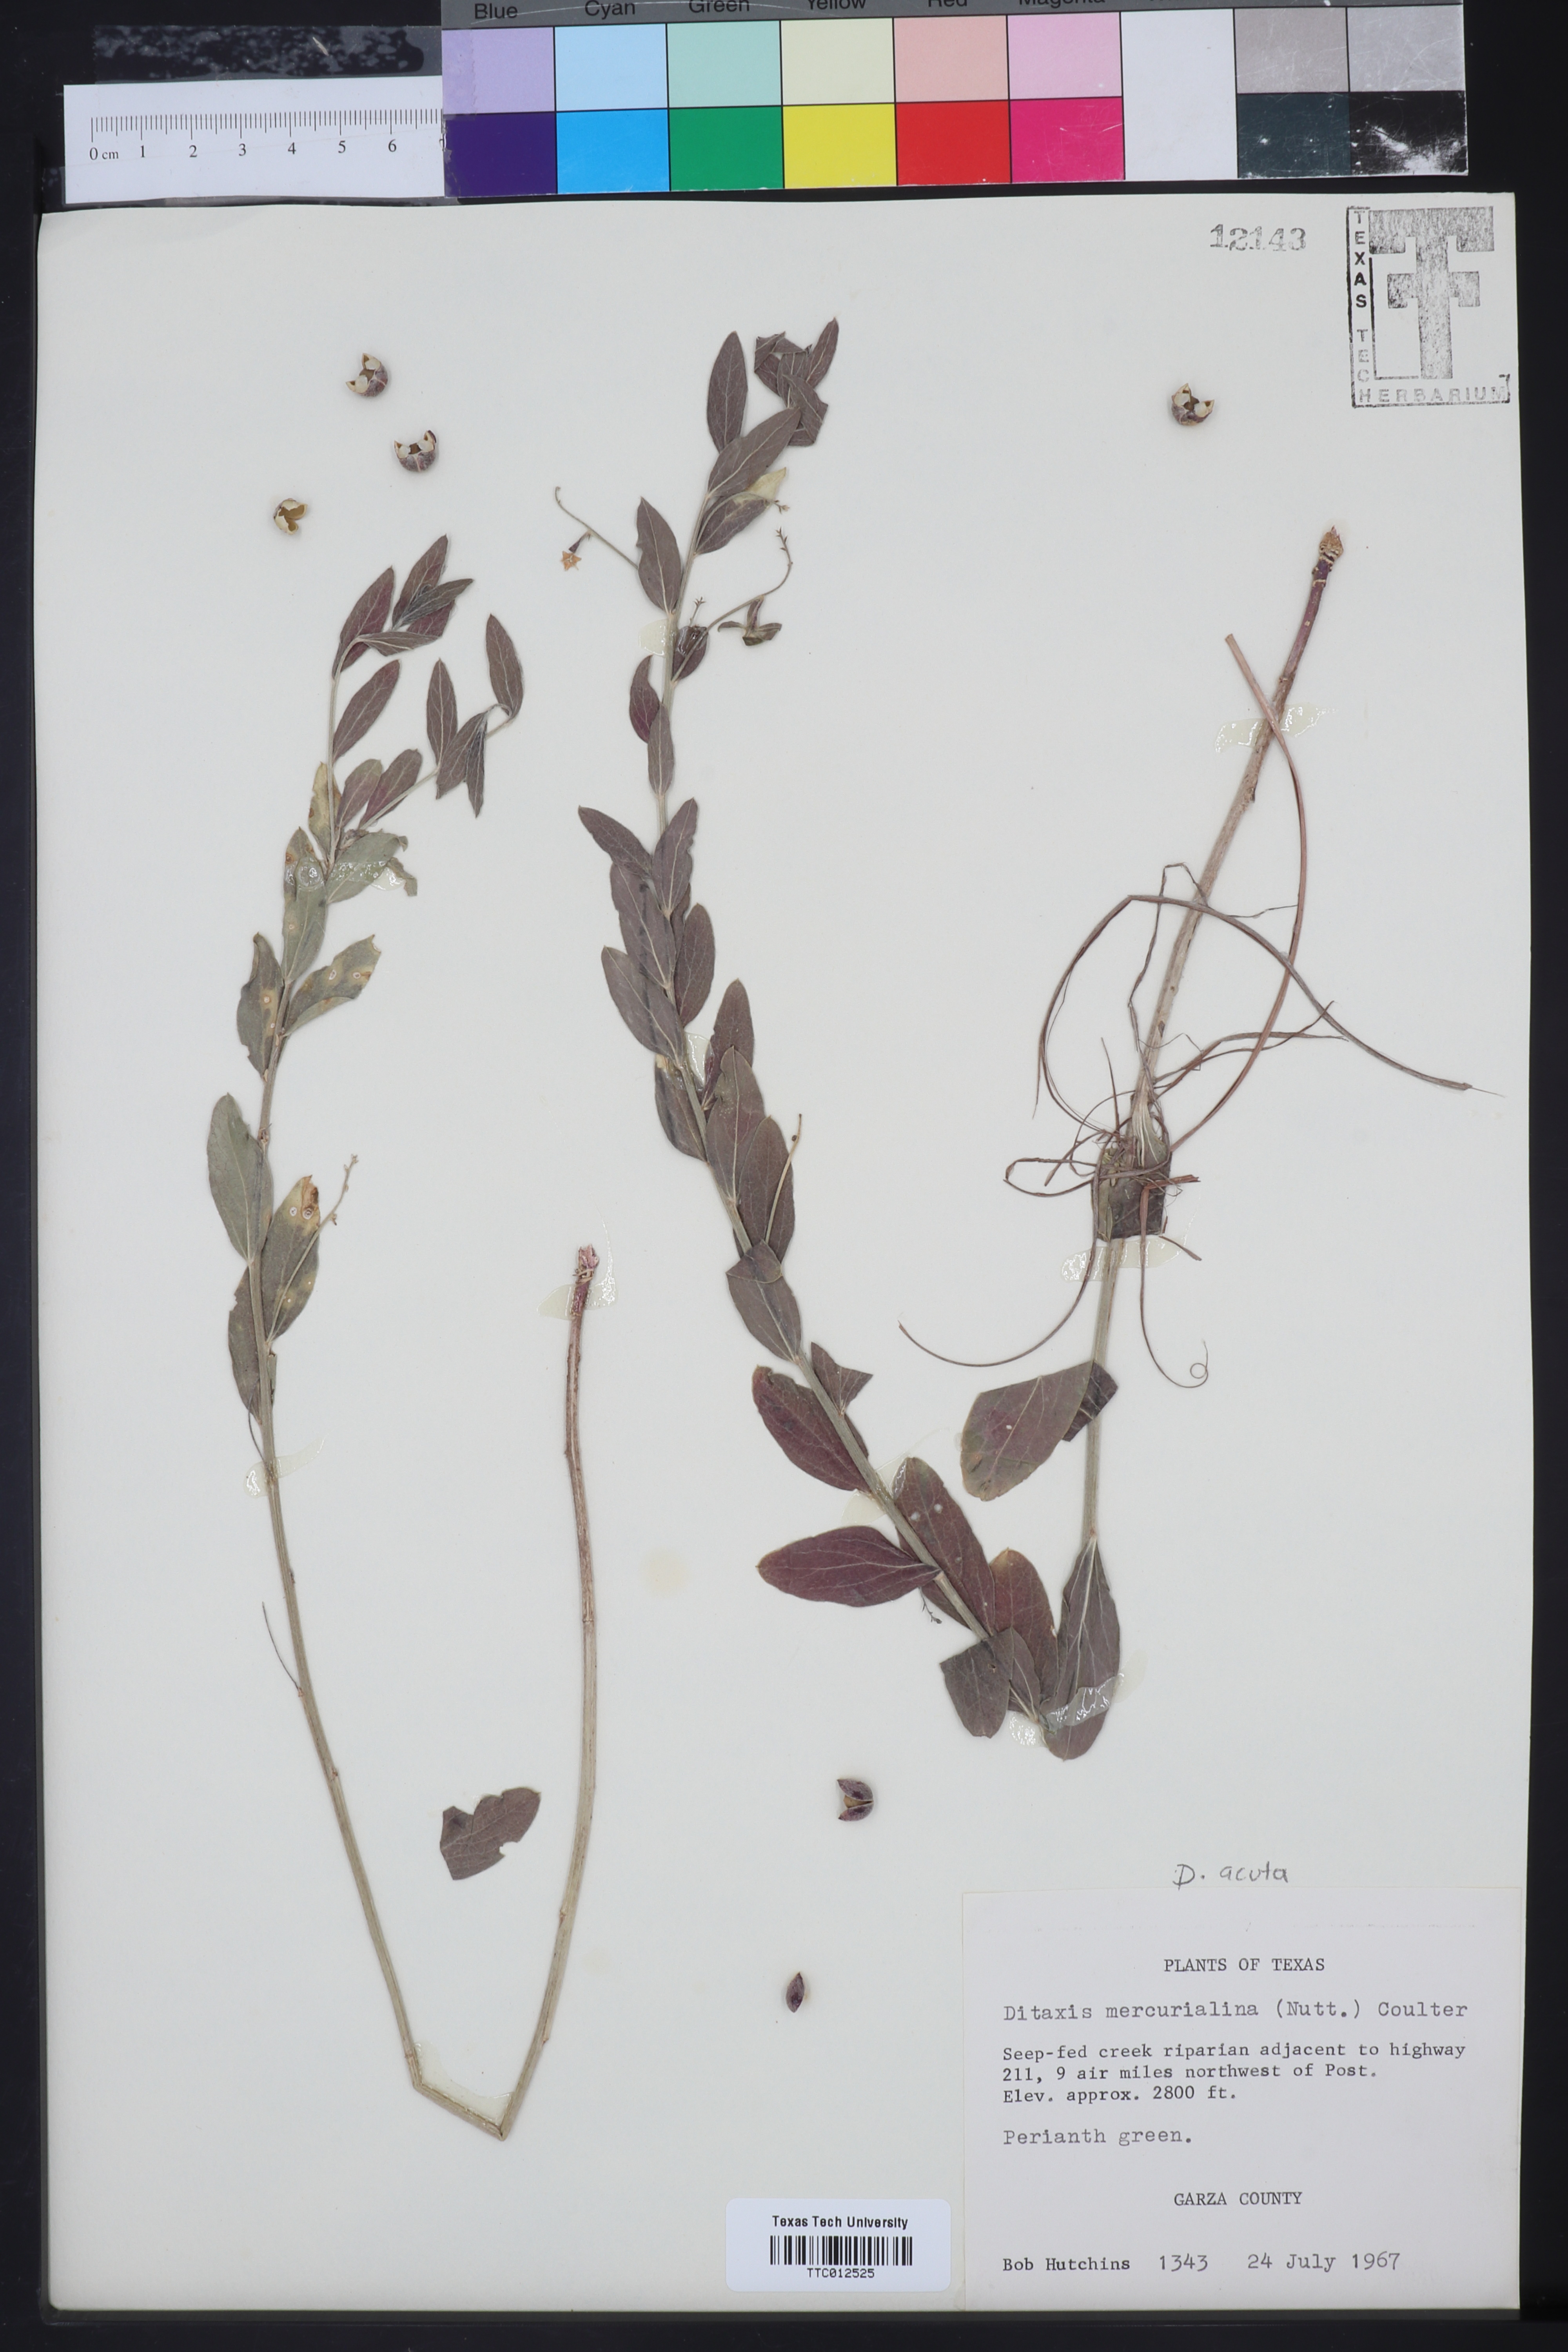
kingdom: Plantae
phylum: Tracheophyta
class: Magnoliopsida
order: Malpighiales
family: Euphorbiaceae
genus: Ditaxis
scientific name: Ditaxis mercurialina
